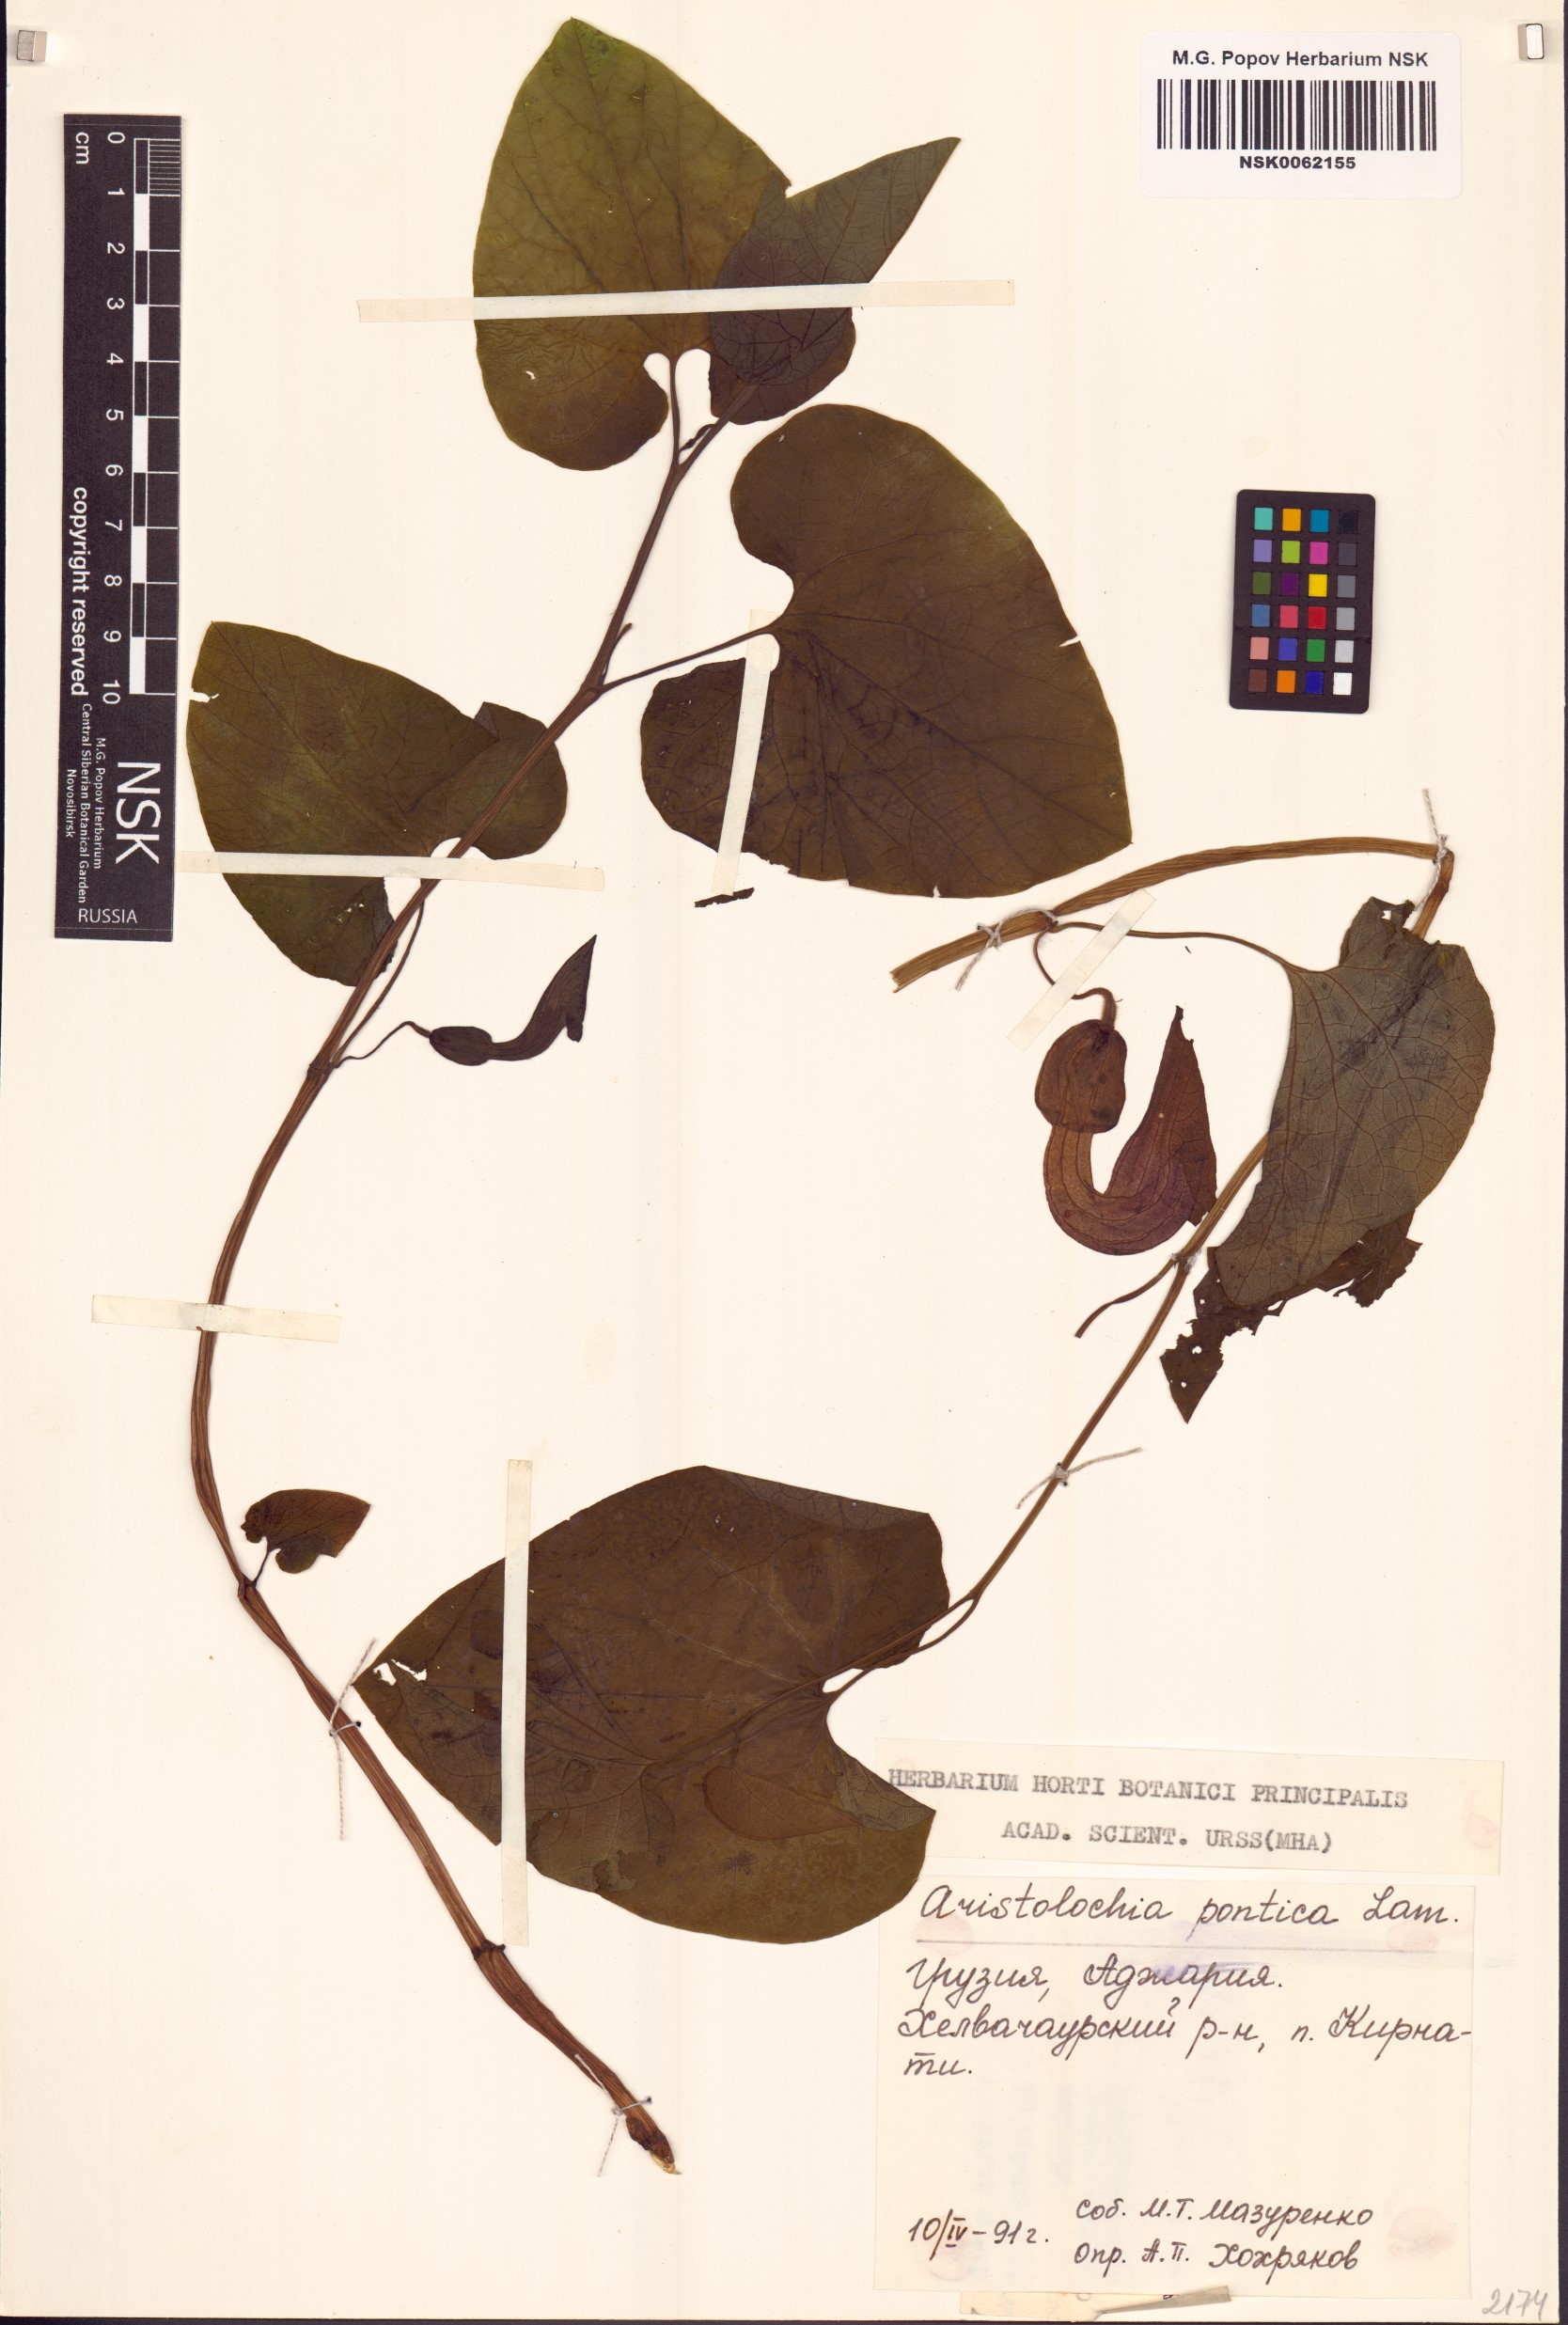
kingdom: Plantae
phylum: Tracheophyta
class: Magnoliopsida
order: Piperales
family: Aristolochiaceae
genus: Aristolochia
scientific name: Aristolochia pontica
